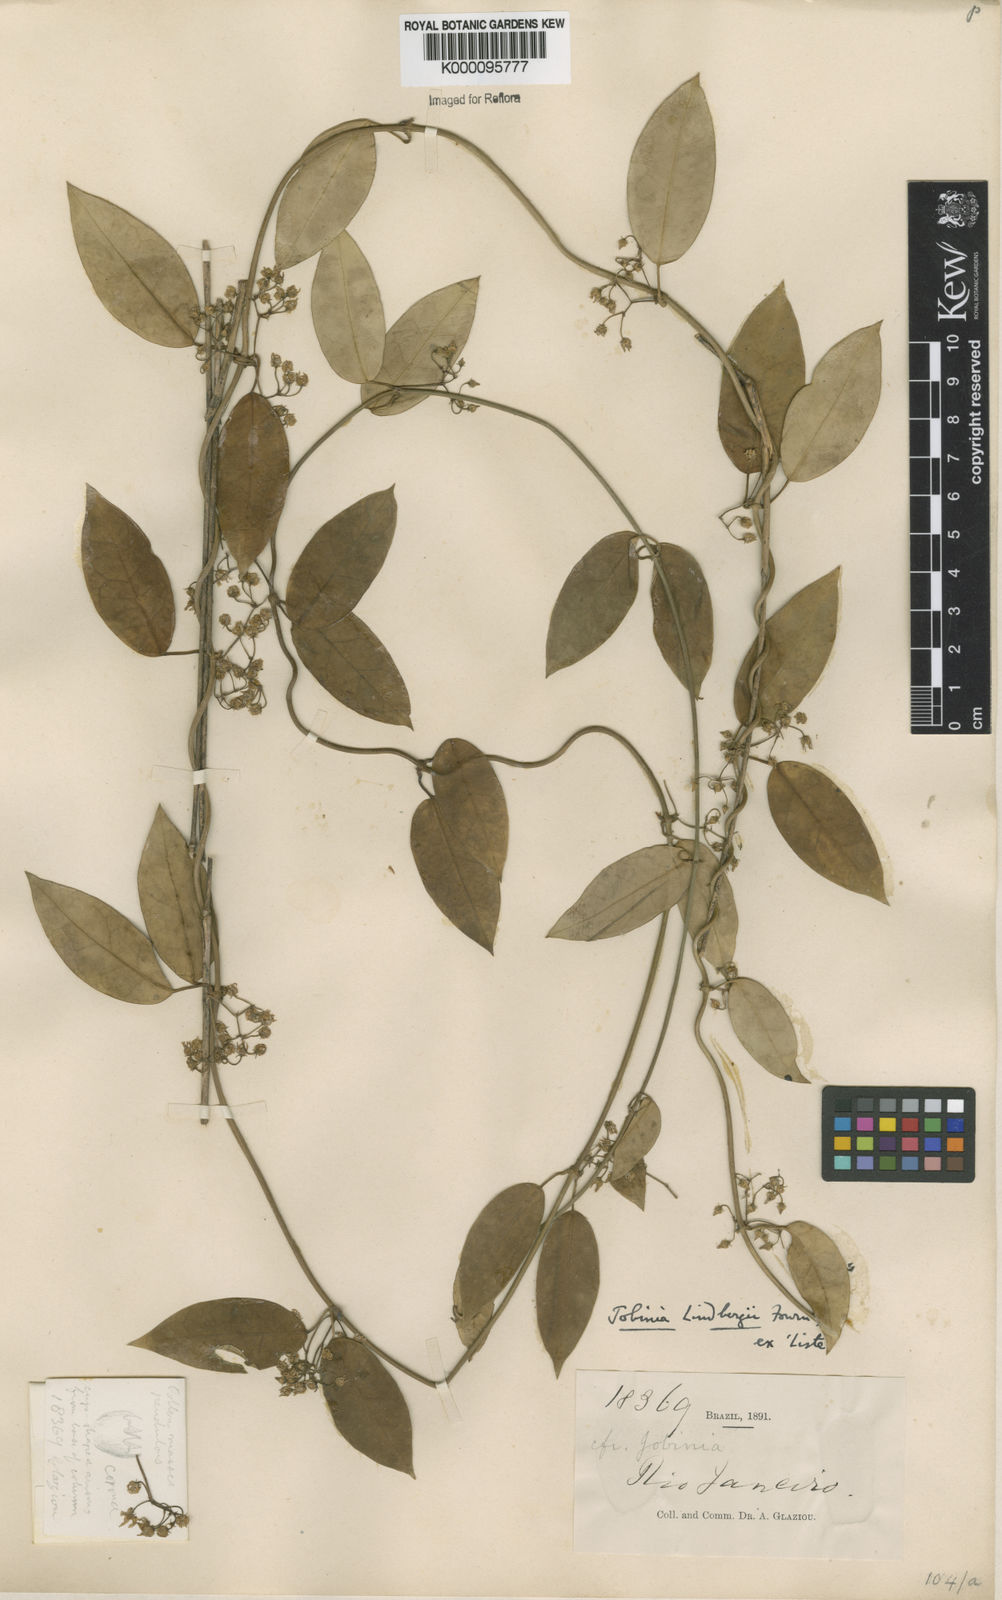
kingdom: Plantae
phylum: Tracheophyta
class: Magnoliopsida
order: Gentianales
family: Apocynaceae
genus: Jobinia
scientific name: Jobinia lindbergii
